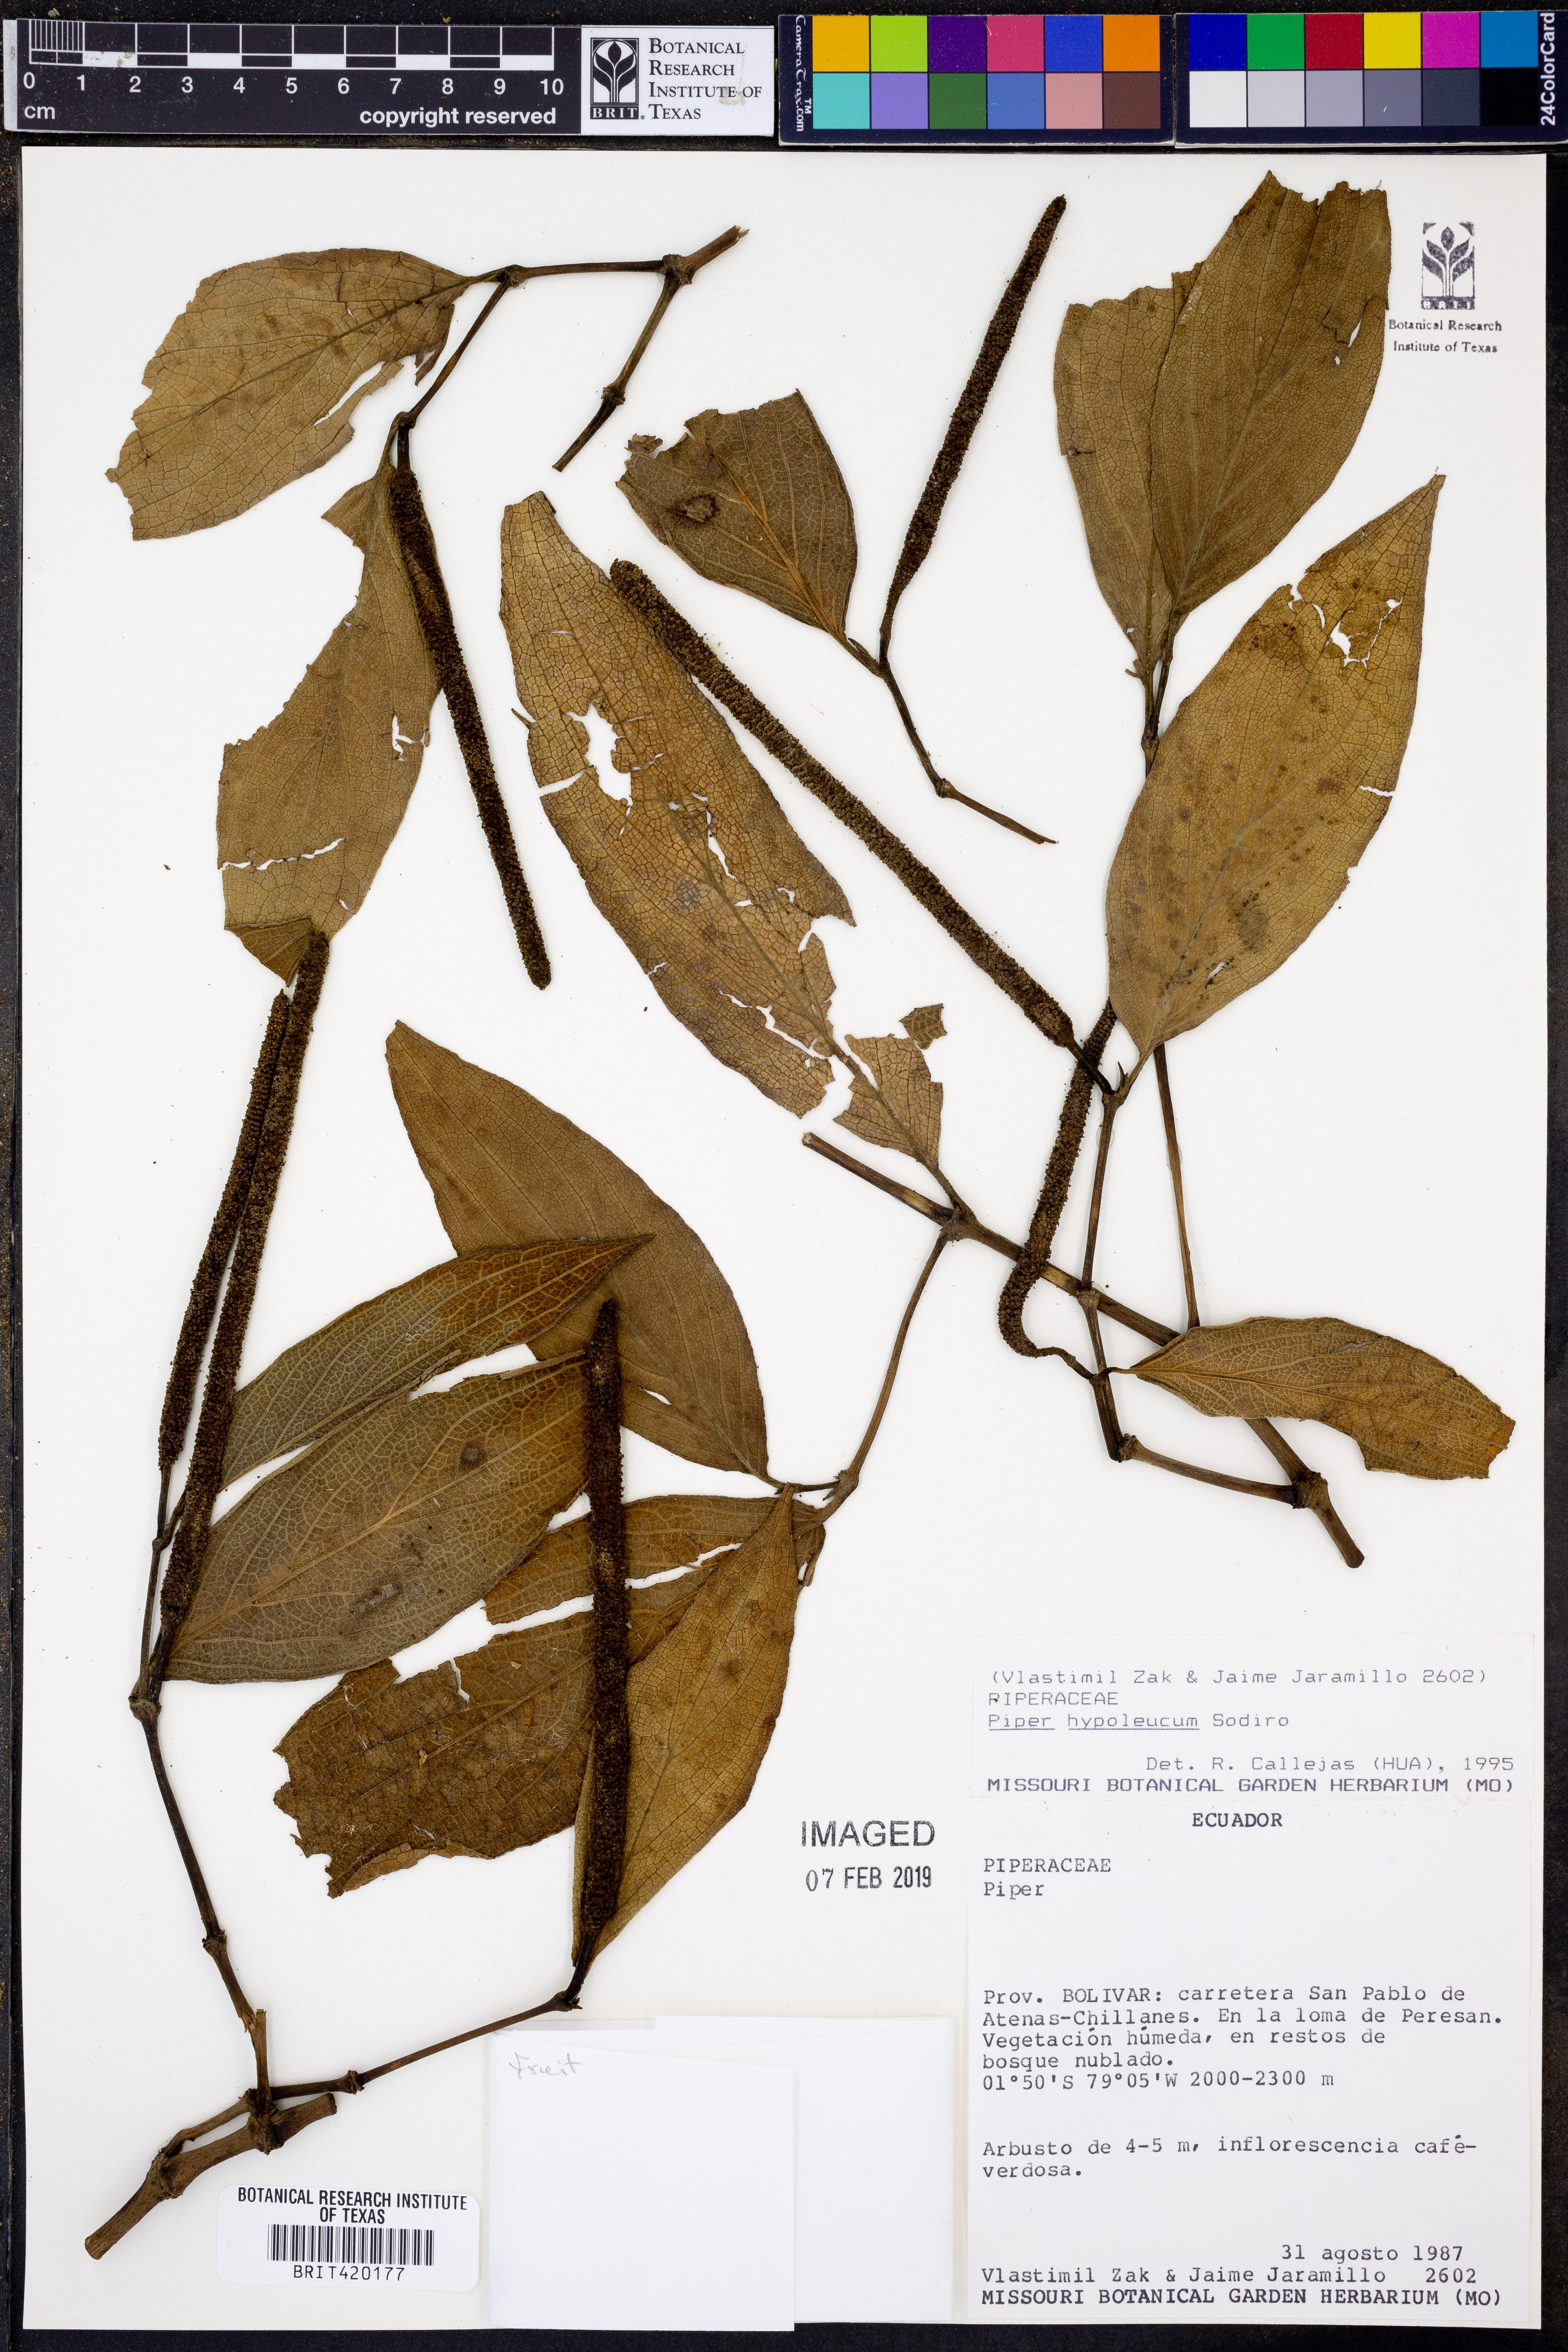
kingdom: Plantae
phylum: Tracheophyta
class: Magnoliopsida
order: Piperales
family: Piperaceae
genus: Piper
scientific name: Piper hypoleucum
